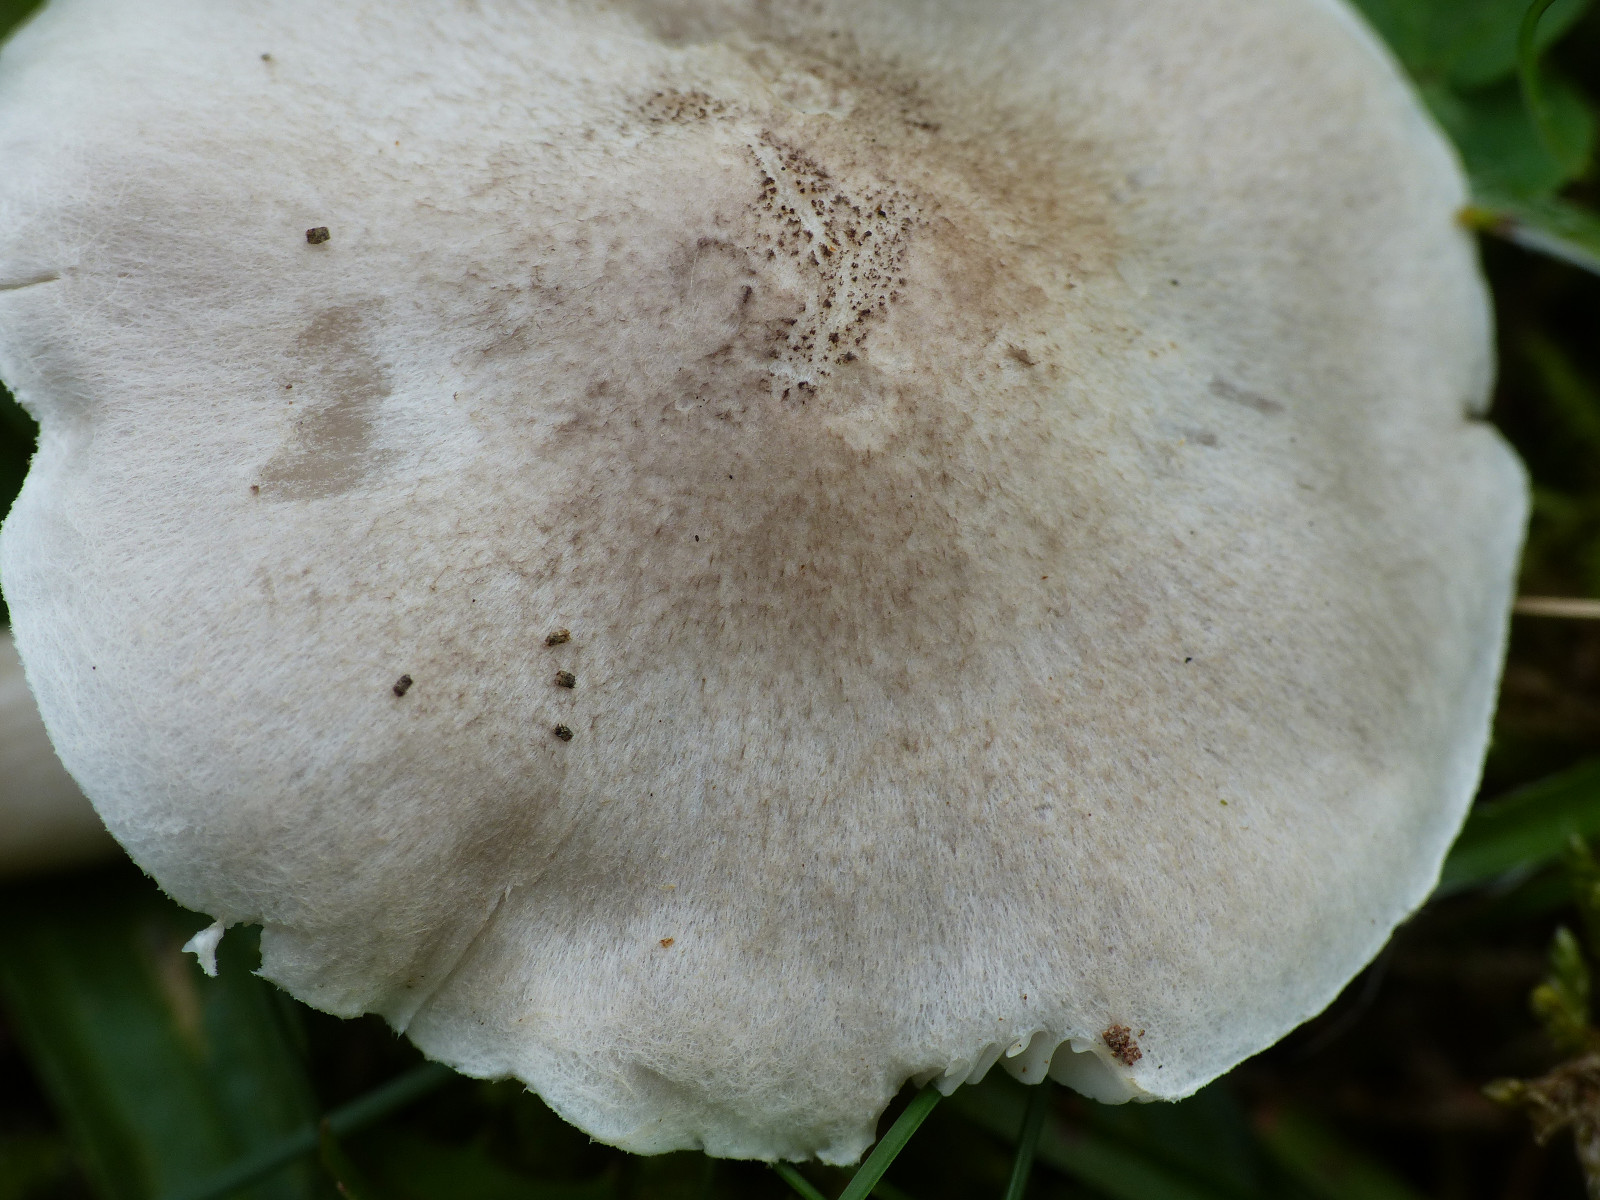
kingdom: Fungi
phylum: Basidiomycota
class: Agaricomycetes
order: Agaricales
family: Tricholomataceae
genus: Tricholoma
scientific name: Tricholoma argyraceum
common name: spids ridderhat
